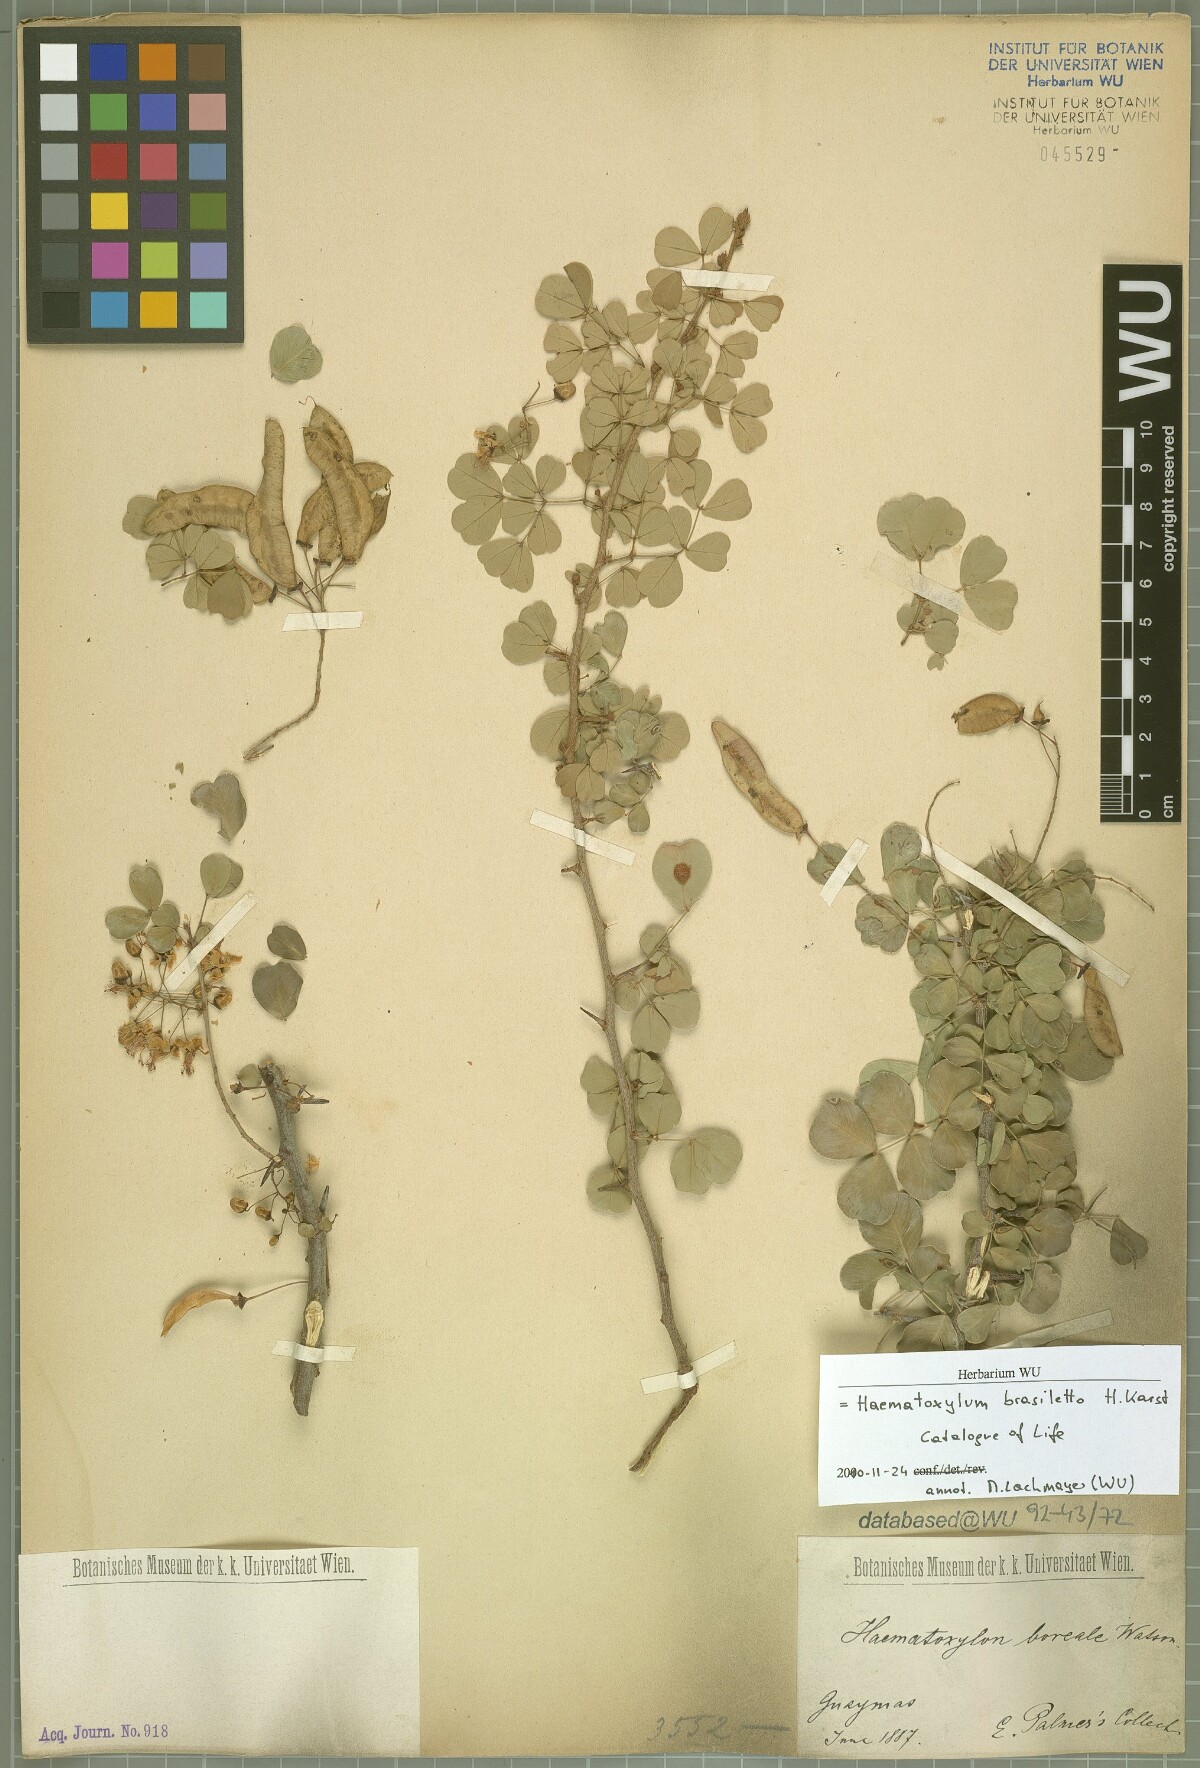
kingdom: Plantae
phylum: Tracheophyta
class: Magnoliopsida
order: Fabales
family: Fabaceae
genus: Haematoxylum
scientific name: Haematoxylum brasiletto
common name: Peachwood
